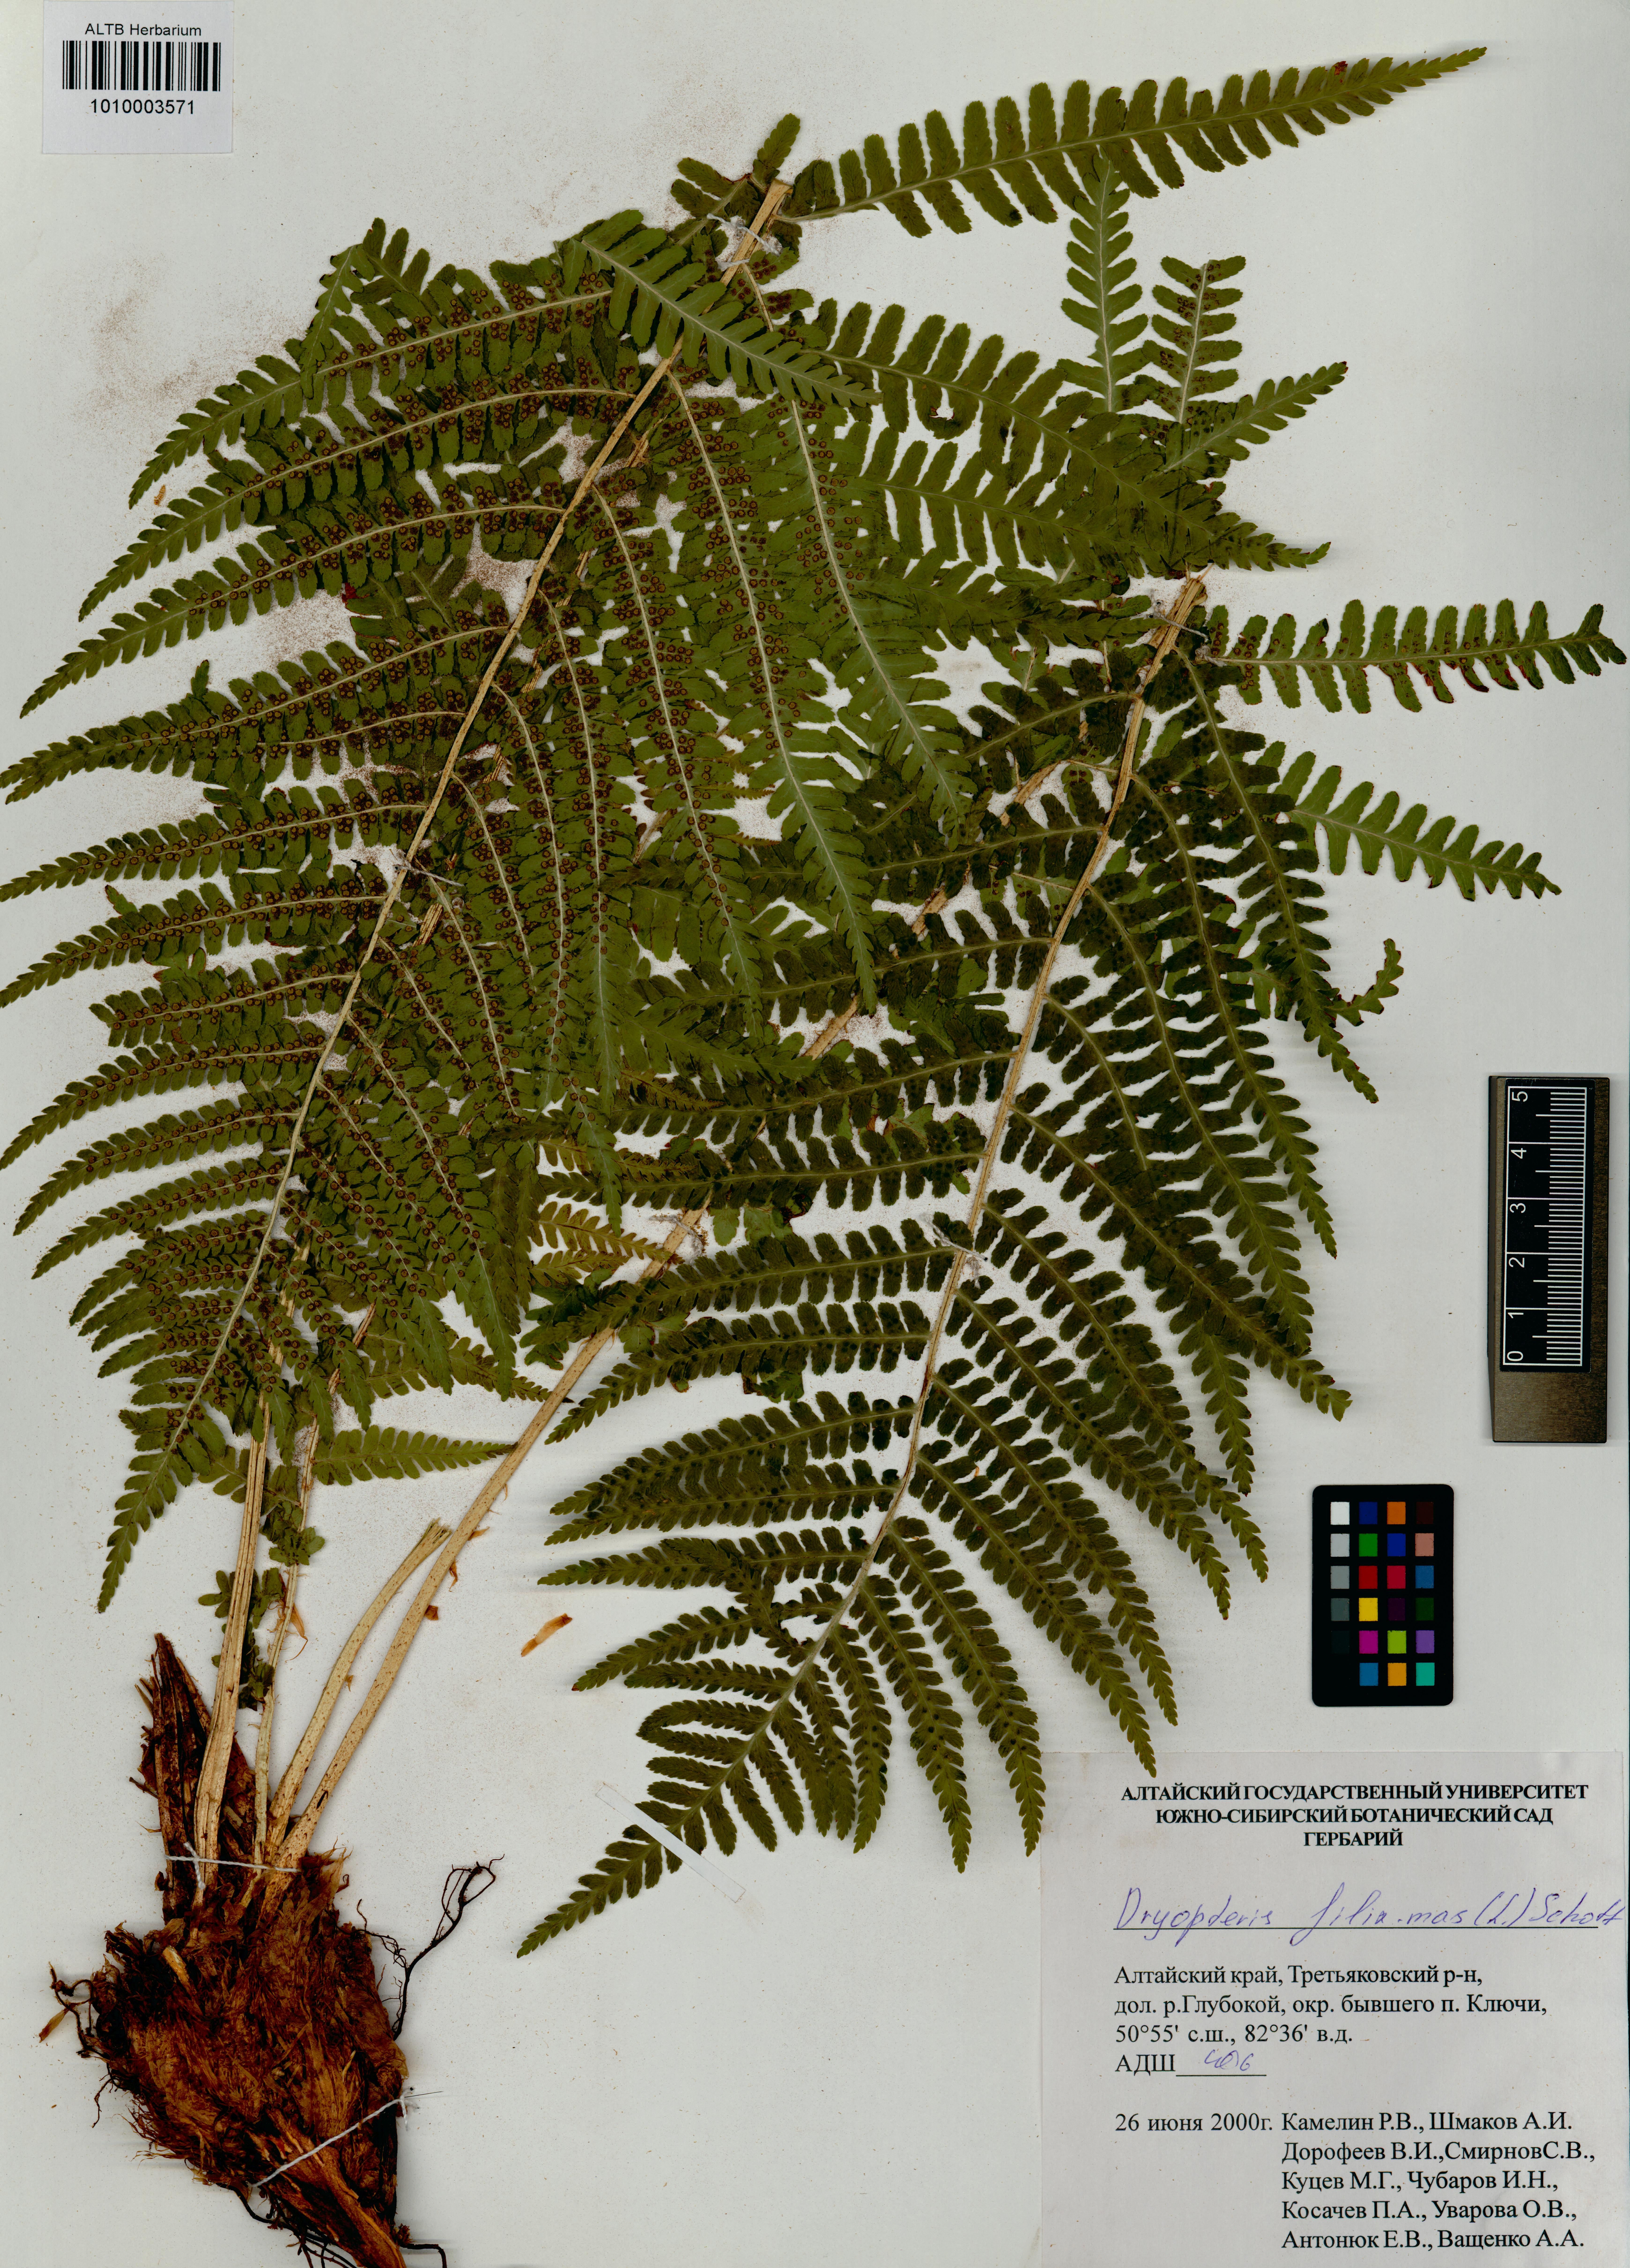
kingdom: Plantae
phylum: Tracheophyta
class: Polypodiopsida
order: Polypodiales
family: Dryopteridaceae
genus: Dryopteris
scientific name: Dryopteris filix-mas
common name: Male fern
